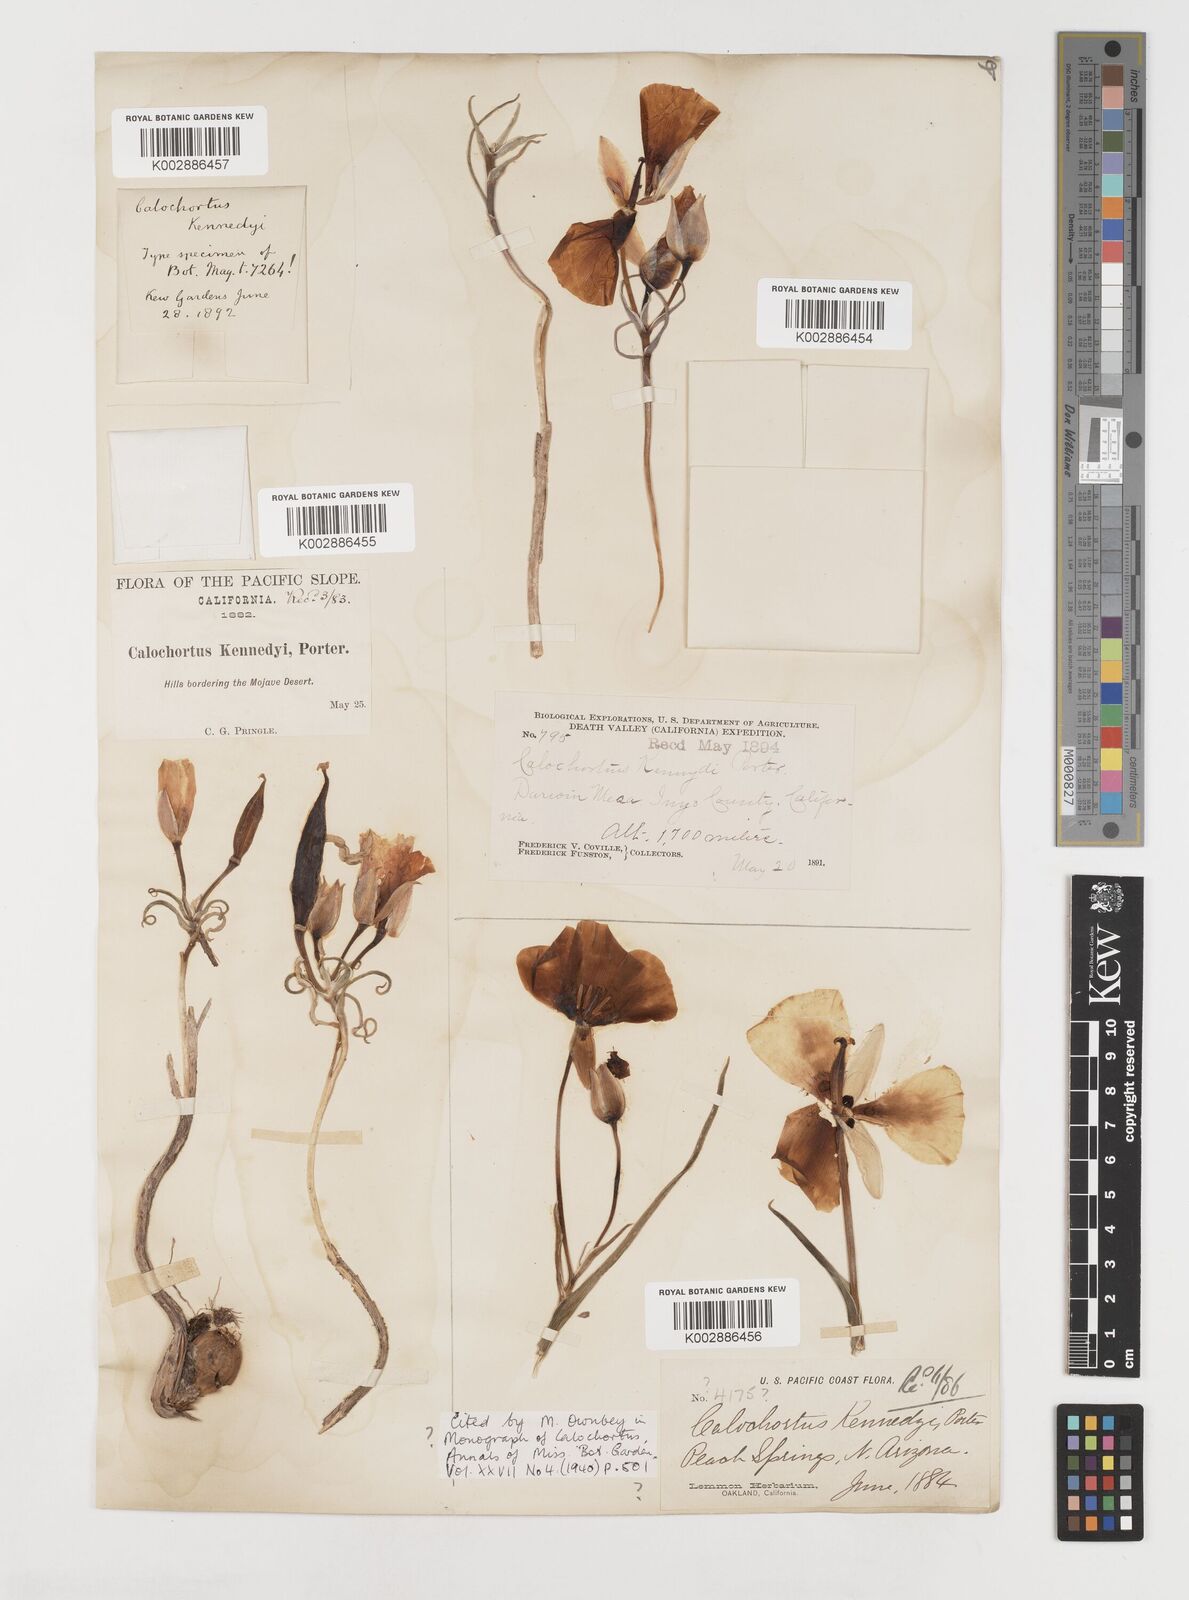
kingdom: Plantae
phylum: Tracheophyta
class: Liliopsida
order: Liliales
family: Liliaceae
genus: Calochortus
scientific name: Calochortus kennedyi
